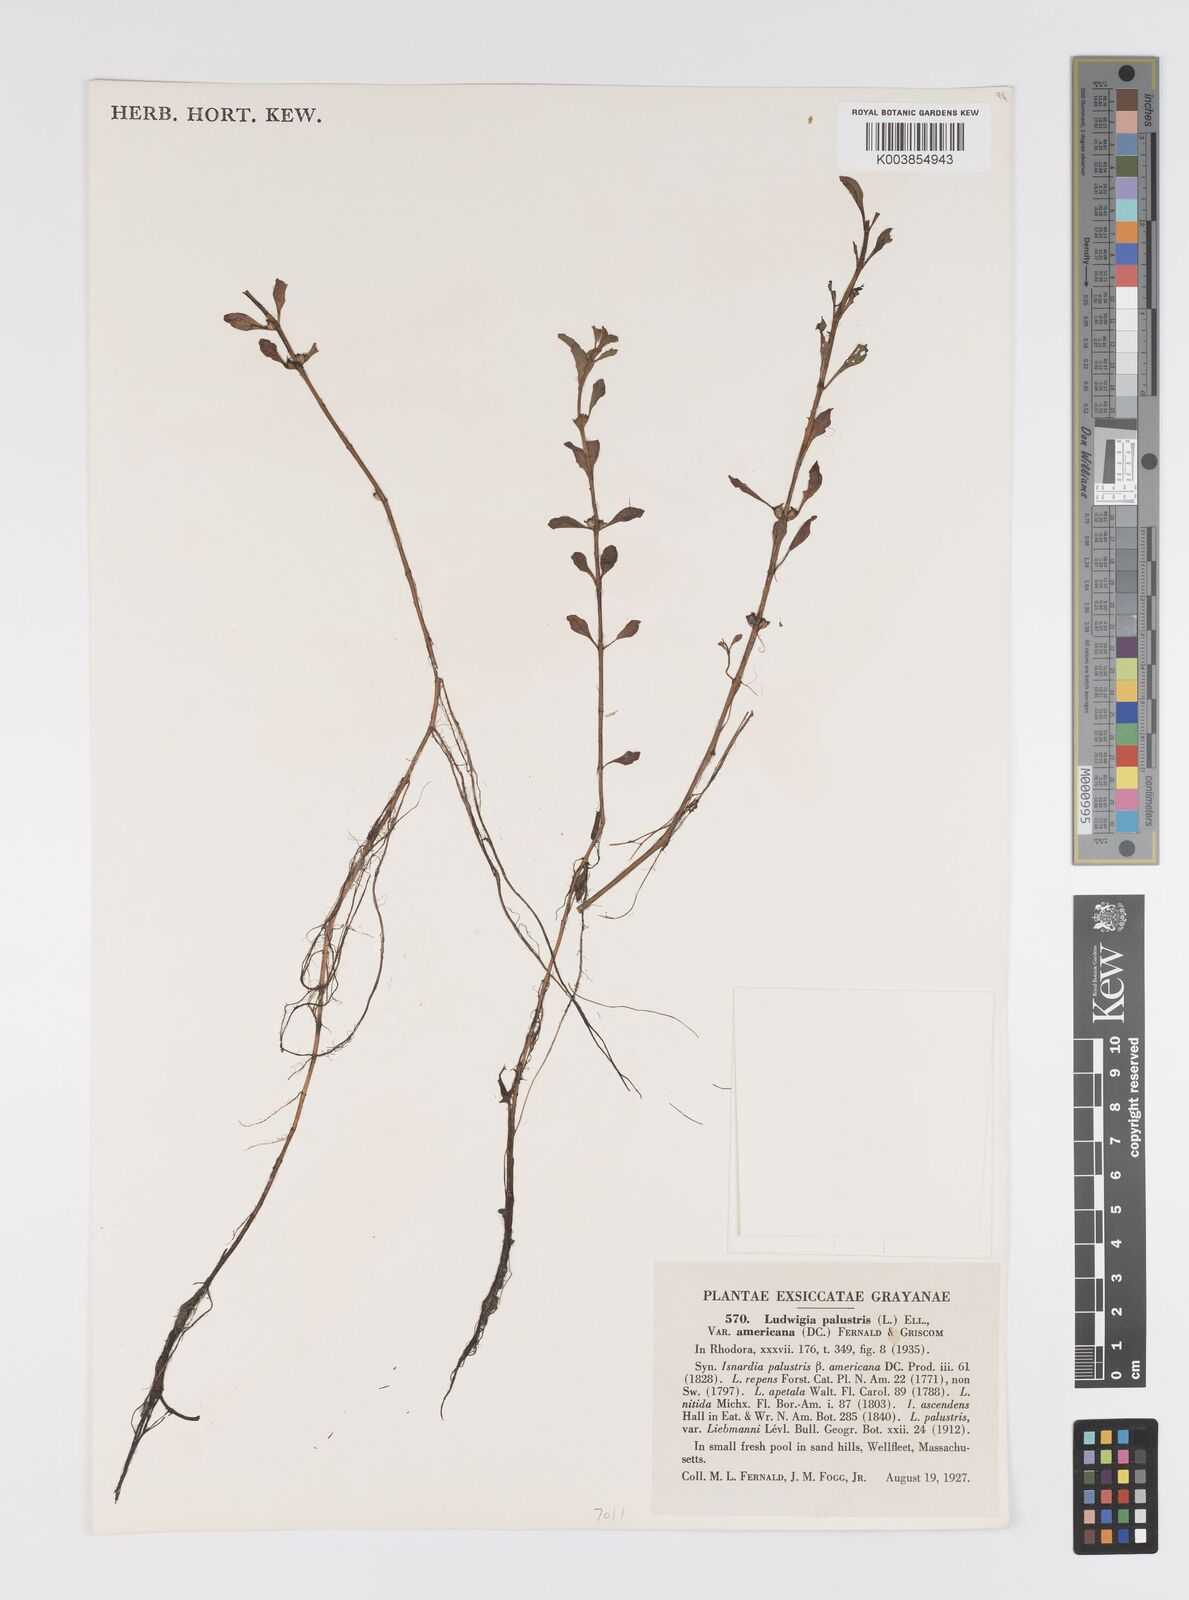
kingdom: Plantae
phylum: Tracheophyta
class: Magnoliopsida
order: Myrtales
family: Onagraceae
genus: Ludwigia
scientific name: Ludwigia palustris
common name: Hampshire-purslane
